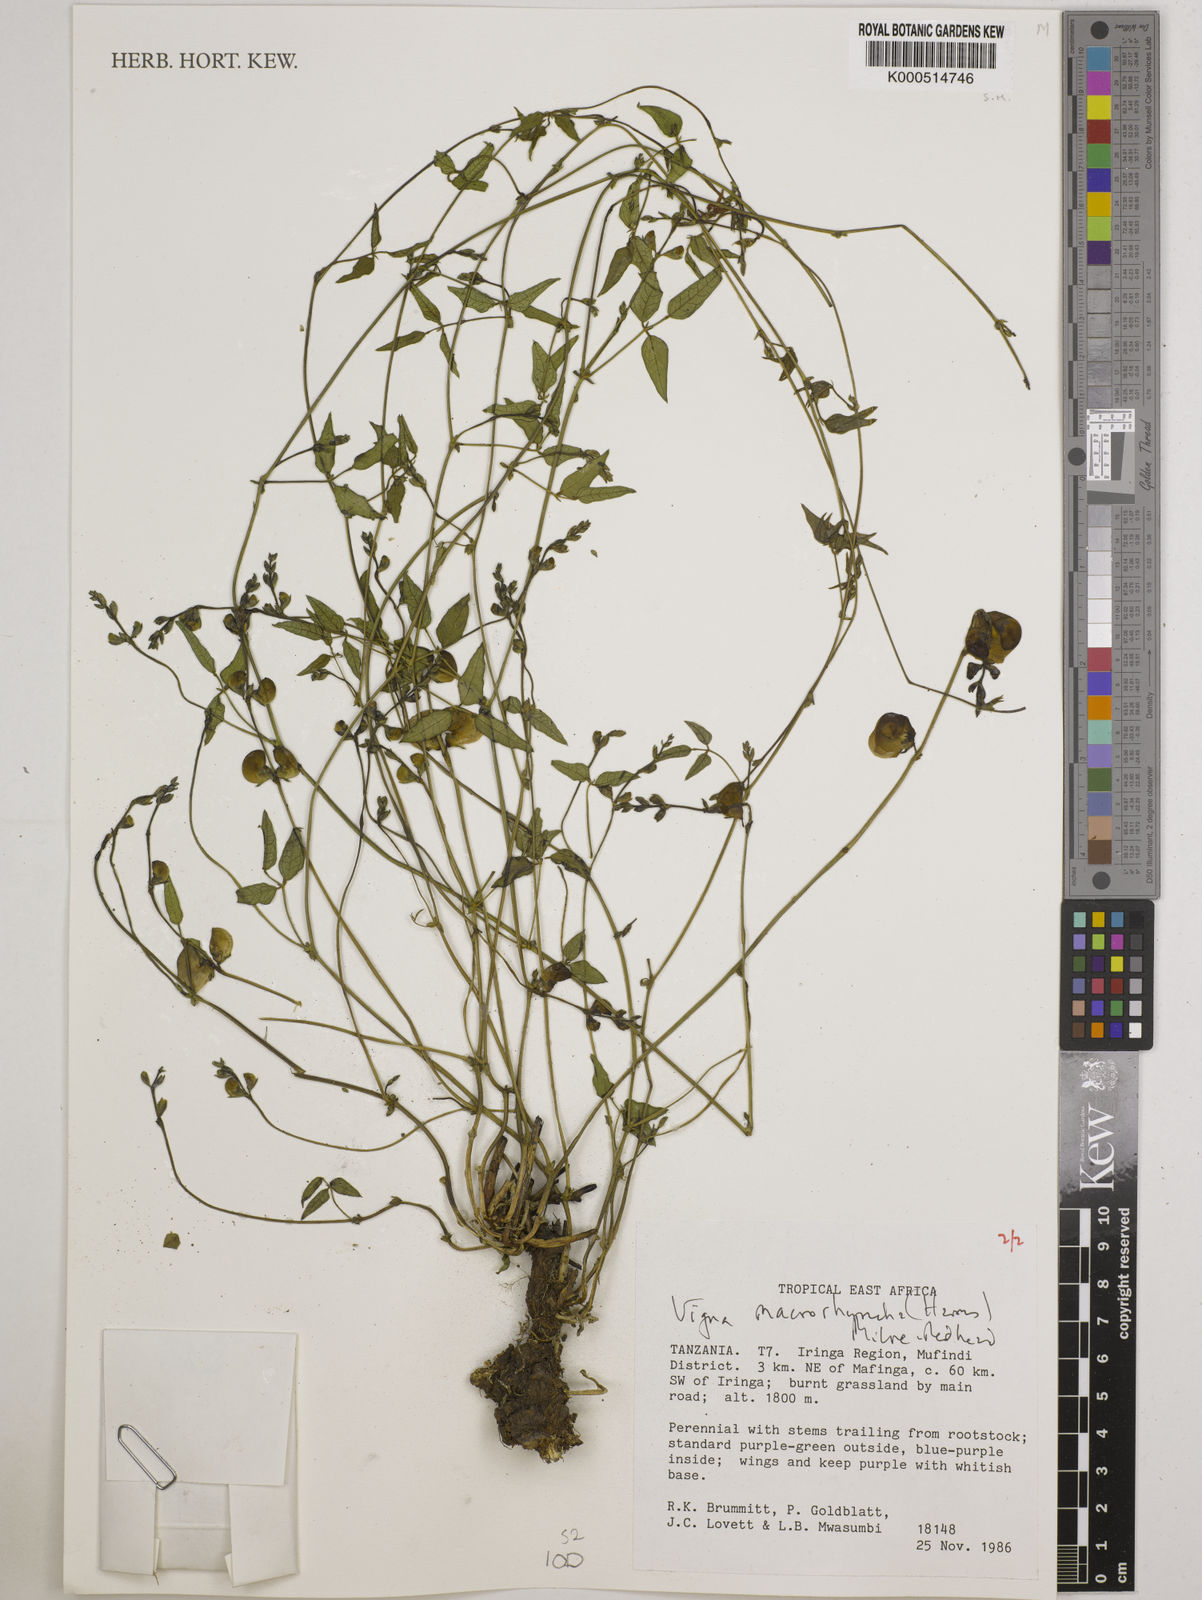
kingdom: Plantae
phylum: Tracheophyta
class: Magnoliopsida
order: Fabales
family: Fabaceae
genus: Wajira
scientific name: Wajira grahamiana
